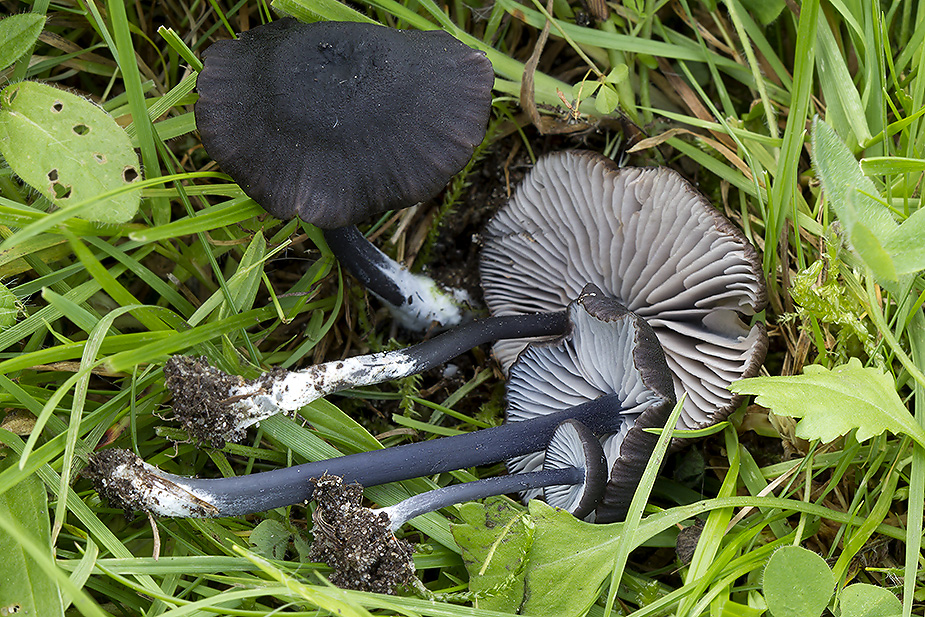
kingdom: Fungi
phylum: Basidiomycota
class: Agaricomycetes
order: Agaricales
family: Entolomataceae
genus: Entoloma
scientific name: Entoloma chalybeum
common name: blåbladet rødblad
